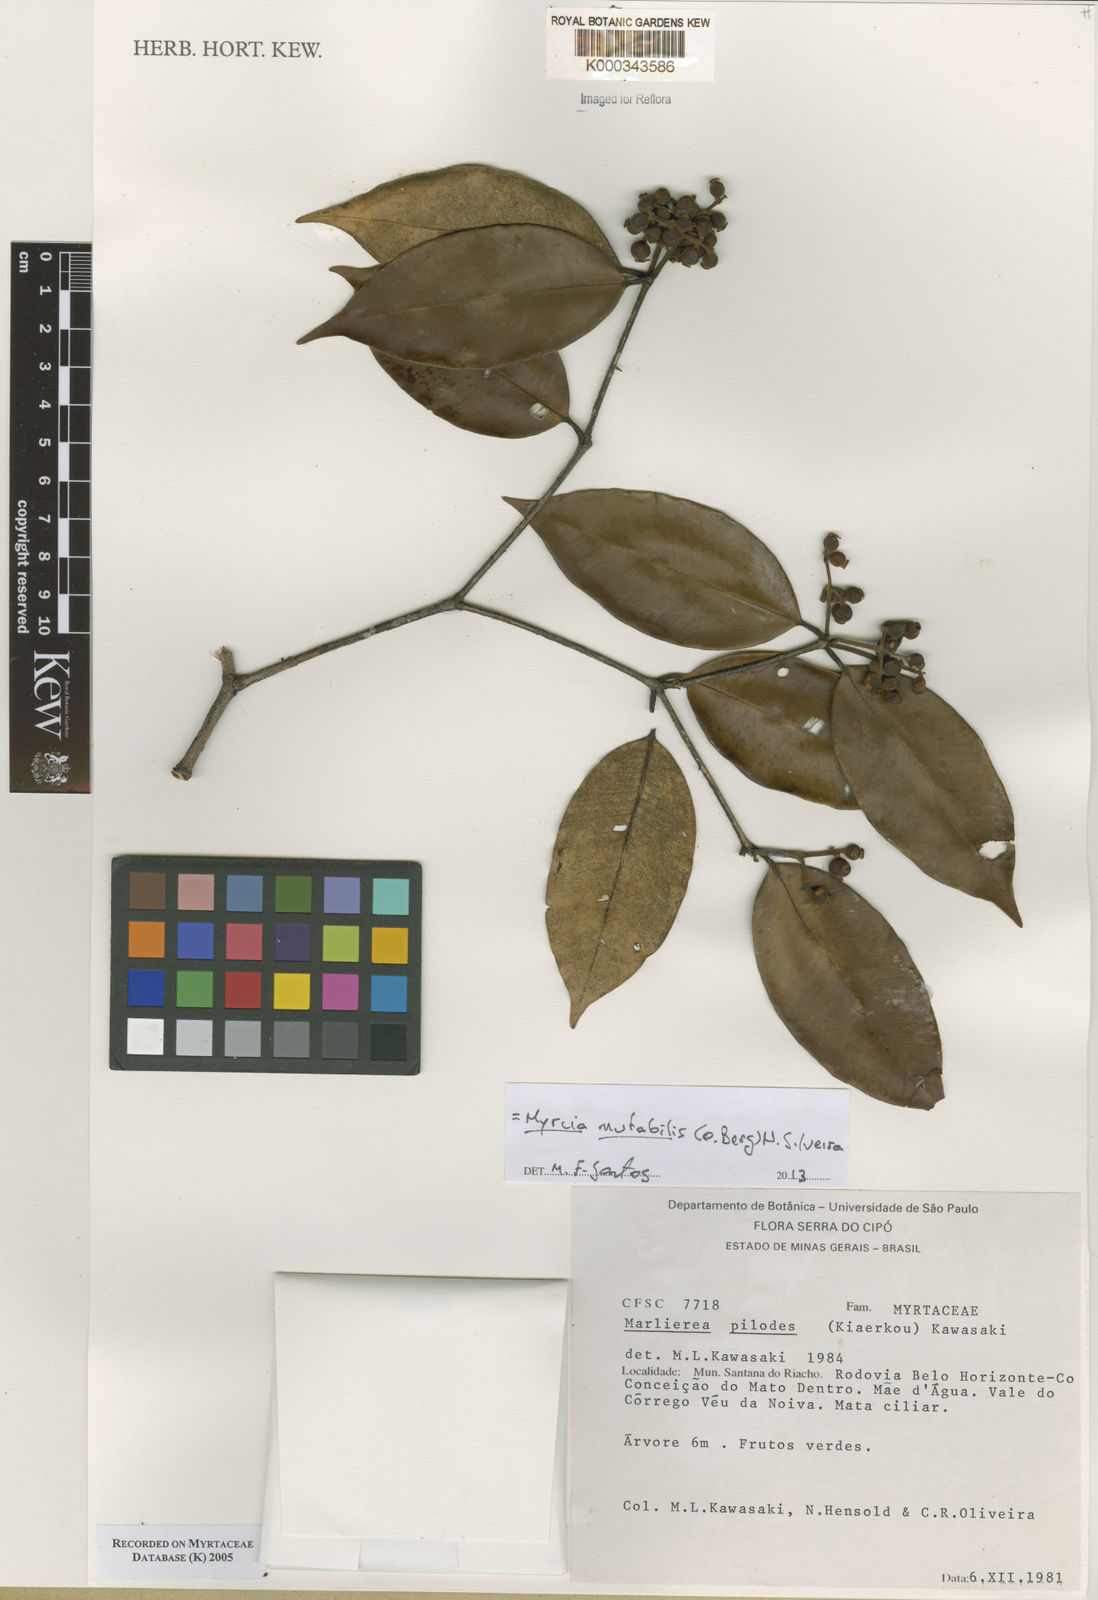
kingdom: Plantae
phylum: Tracheophyta
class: Magnoliopsida
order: Myrtales
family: Myrtaceae
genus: Myrcia
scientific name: Myrcia mutabilis
